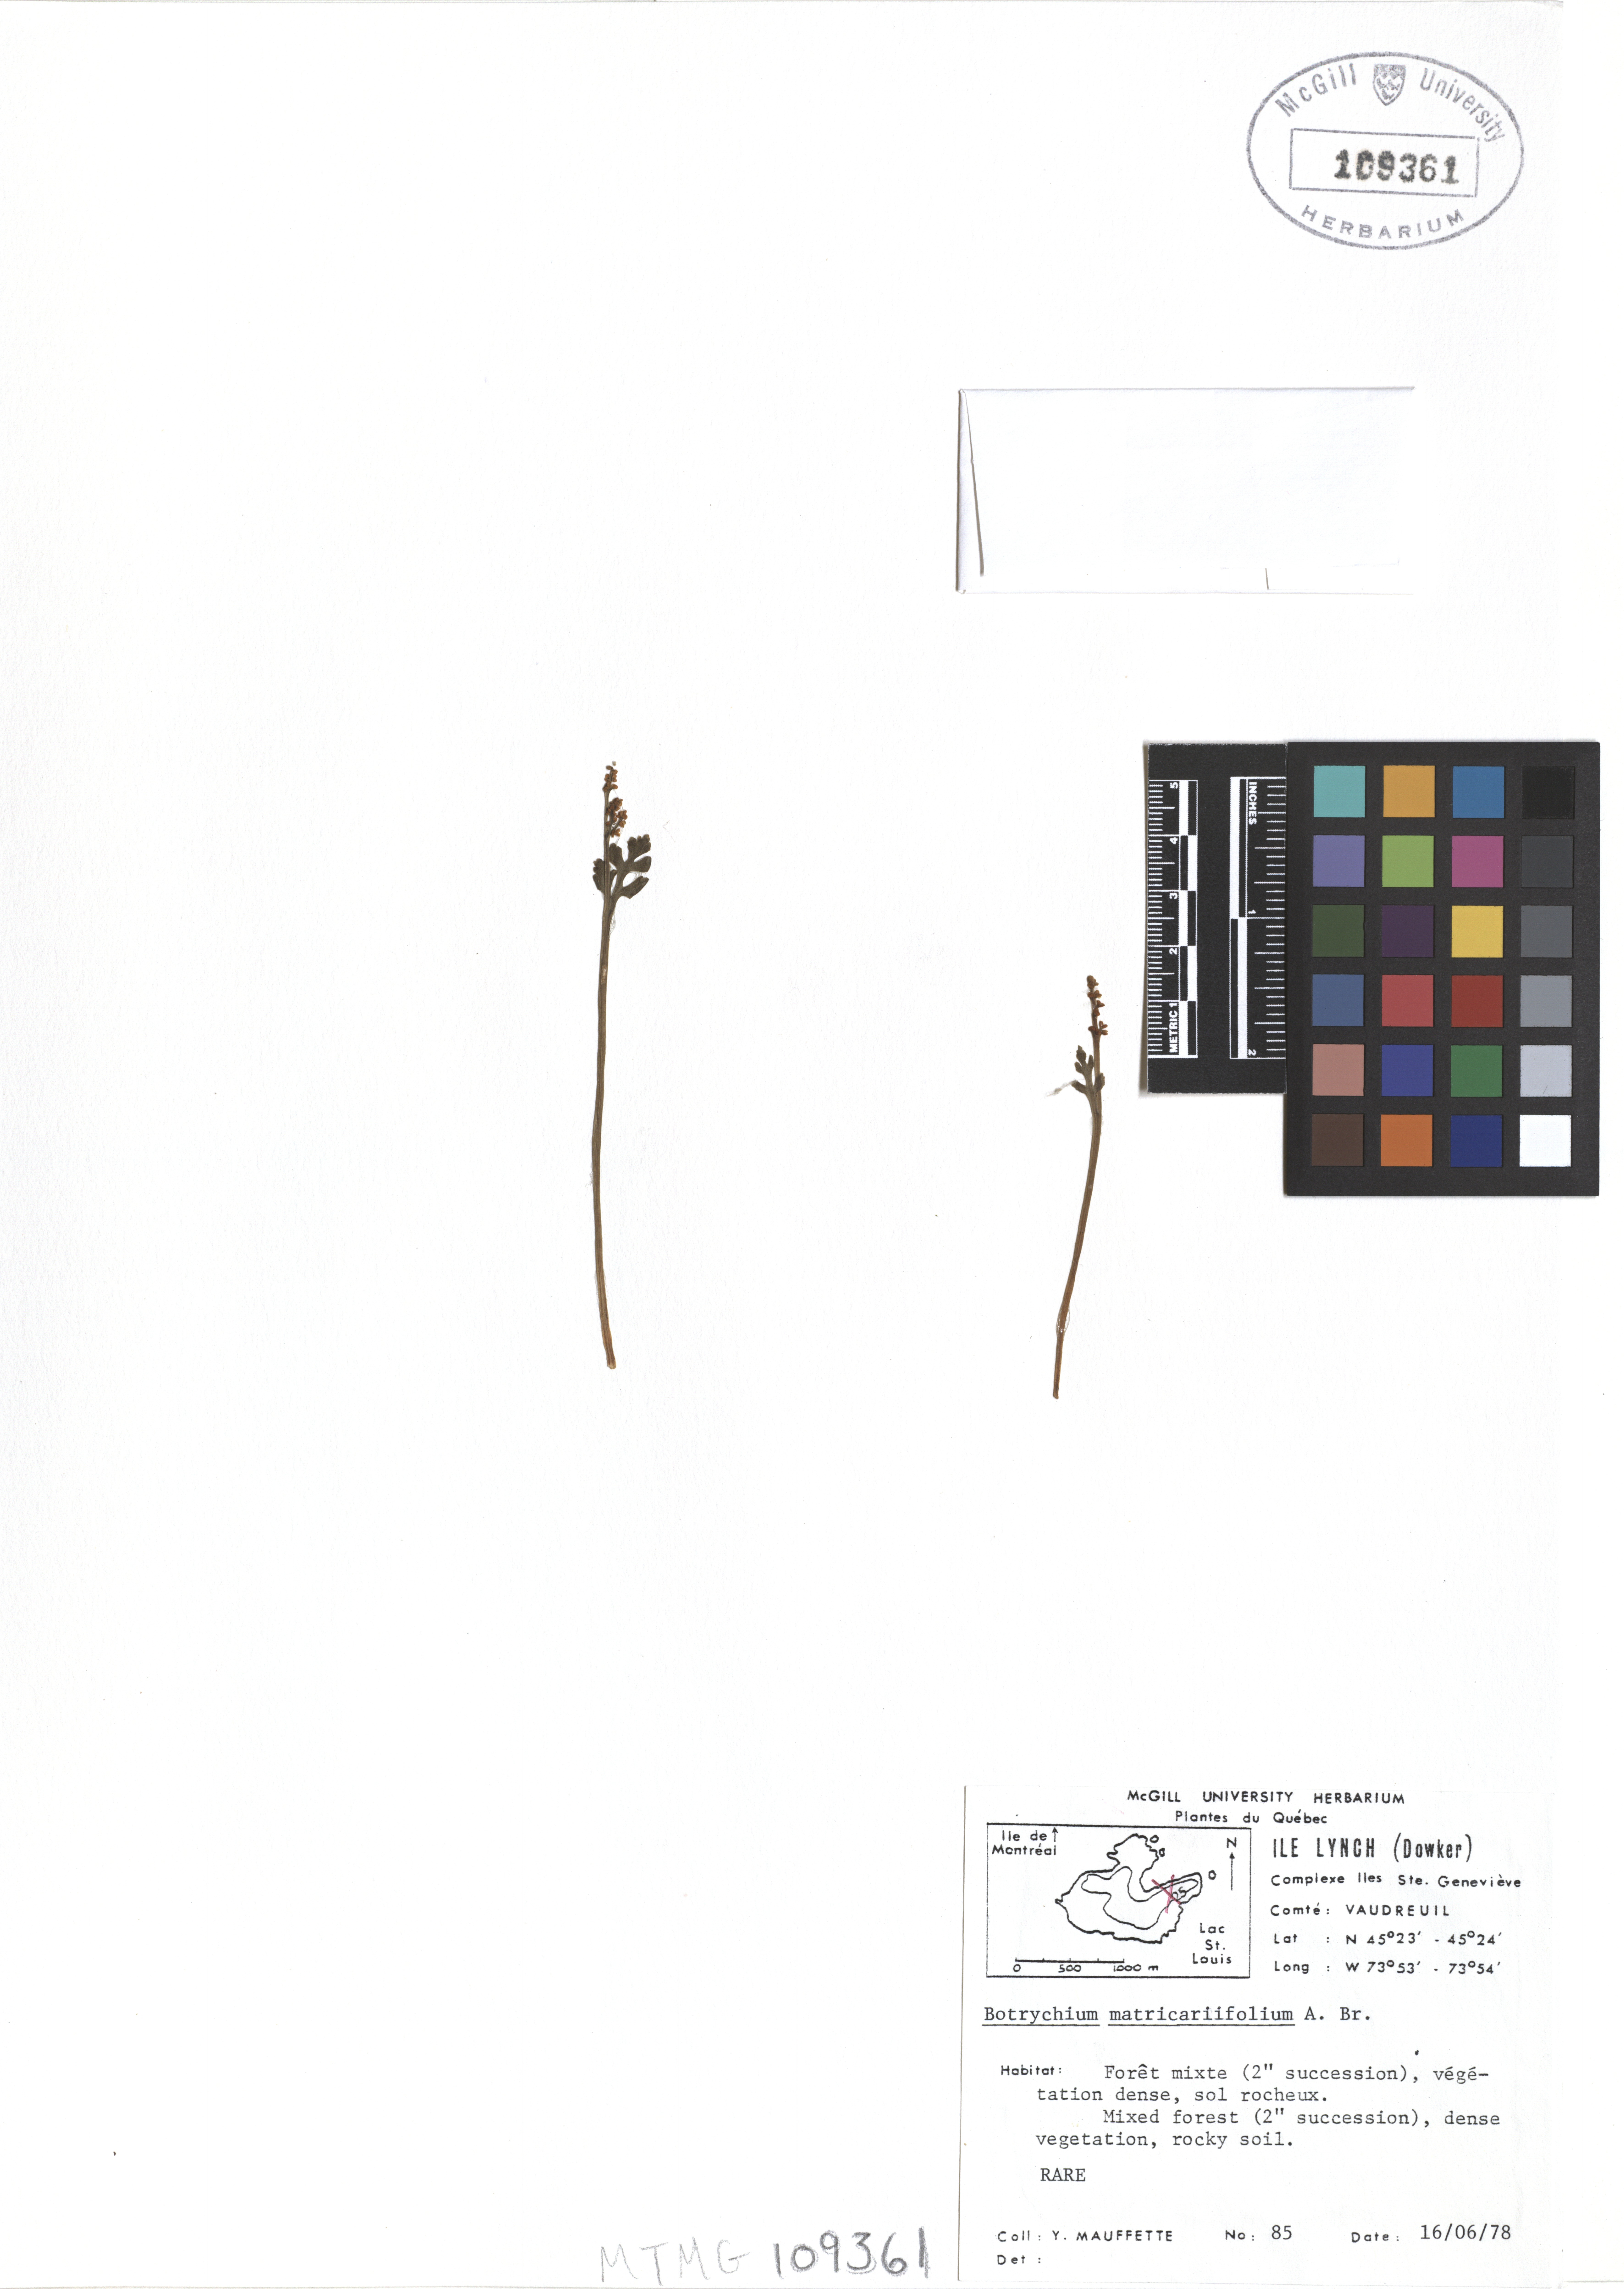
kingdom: Plantae
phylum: Tracheophyta
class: Polypodiopsida
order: Ophioglossales
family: Ophioglossaceae
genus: Botrychium
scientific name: Botrychium matricariifolium
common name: Branched moonwort
